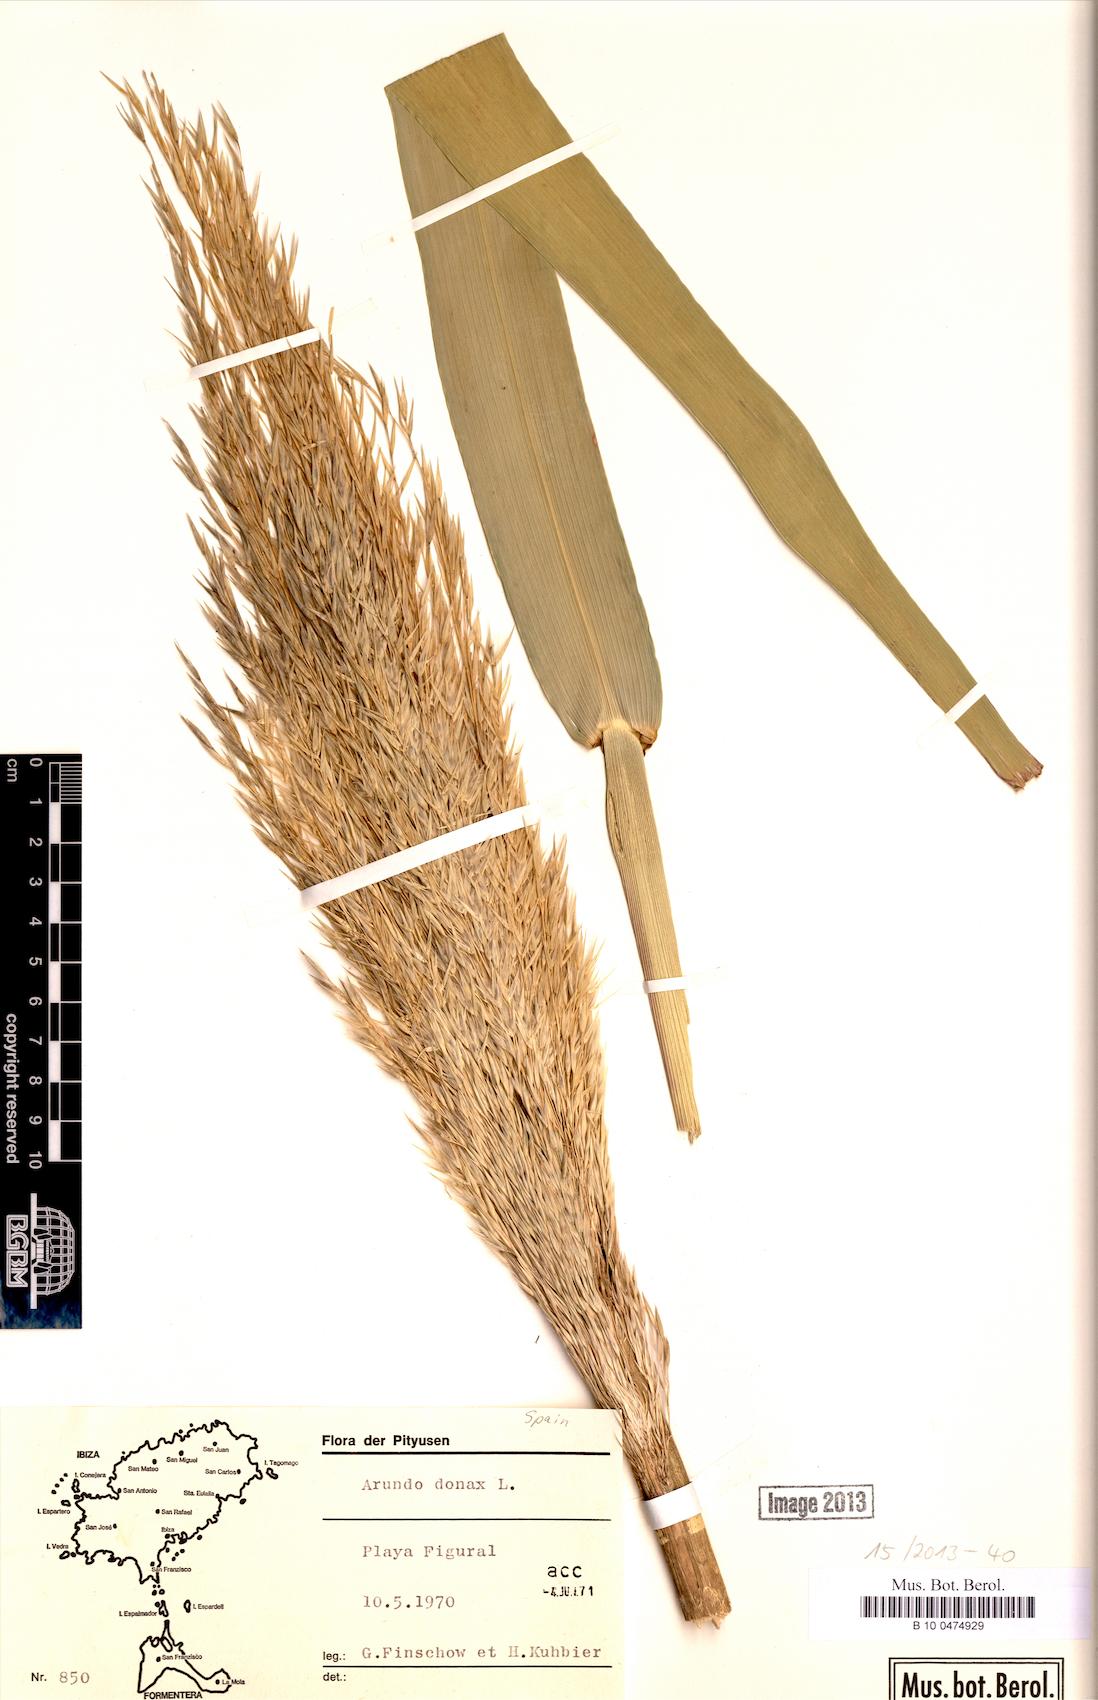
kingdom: Plantae
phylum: Tracheophyta
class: Liliopsida
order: Poales
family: Poaceae
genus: Arundo
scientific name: Arundo donax
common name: Giant reed
